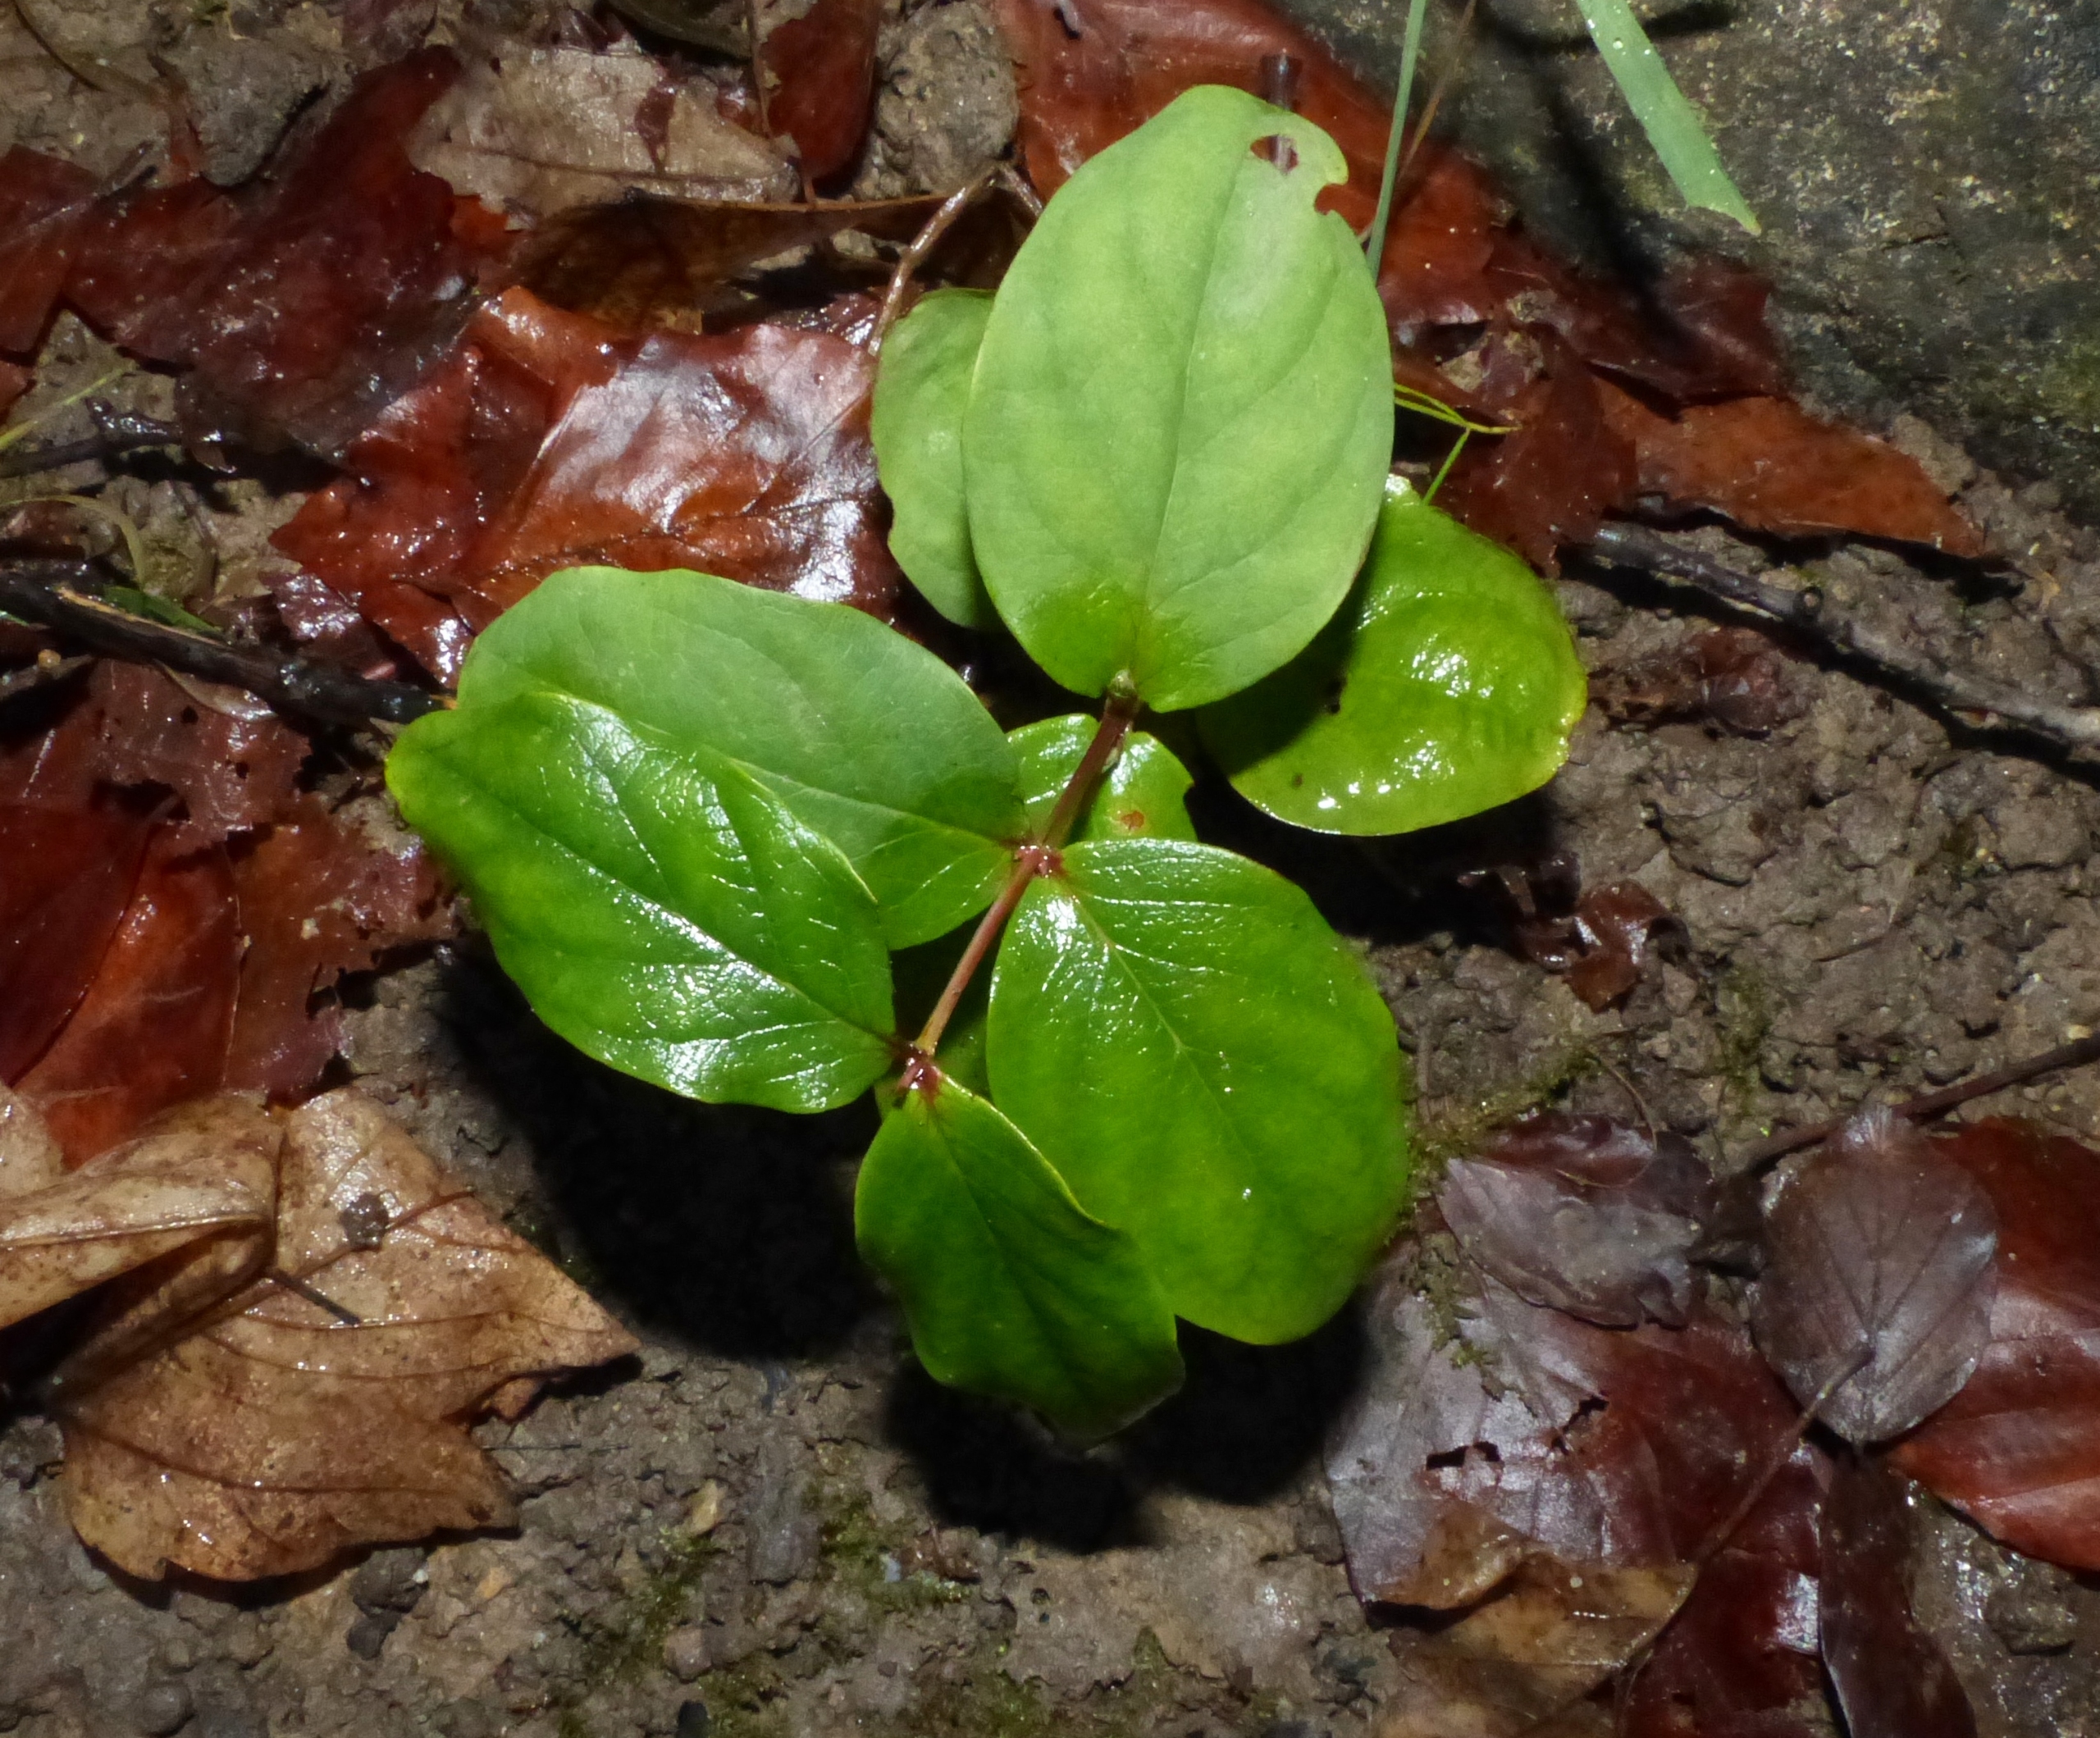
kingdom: Plantae
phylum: Tracheophyta
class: Magnoliopsida
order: Malpighiales
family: Hypericaceae
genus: Hypericum
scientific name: Hypericum androsaemum
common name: Bær-perikon
